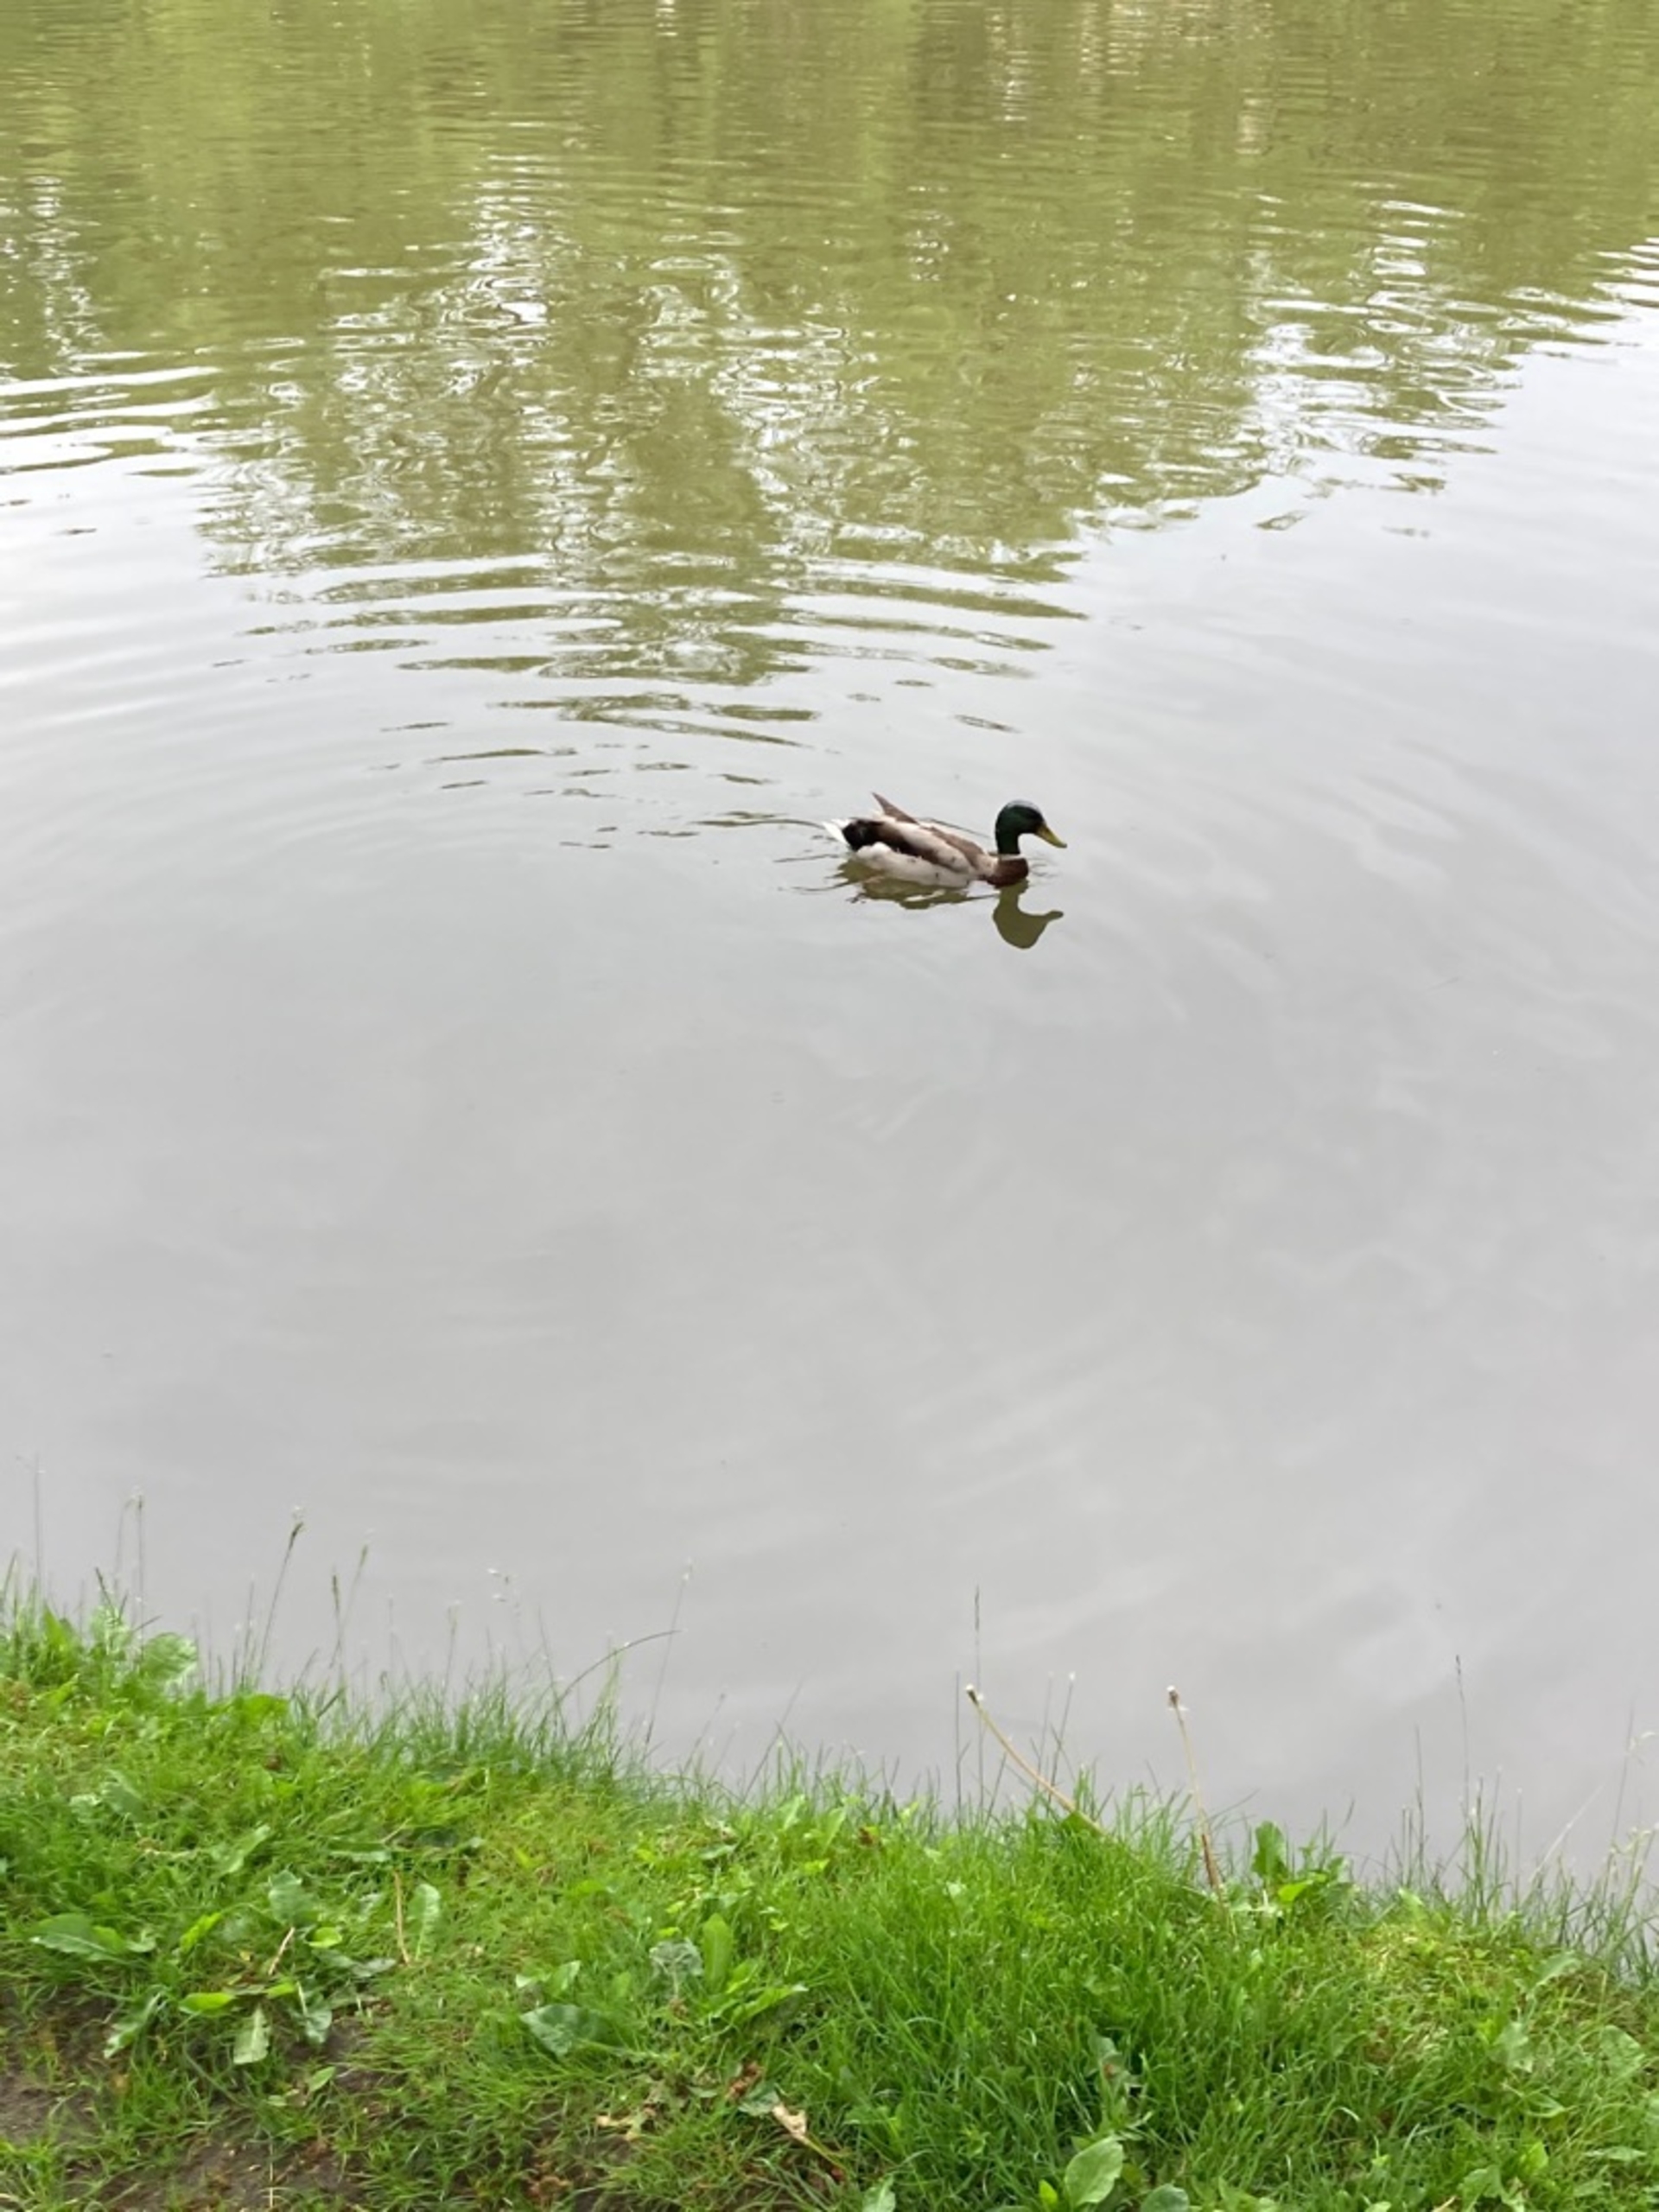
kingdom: Animalia
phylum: Chordata
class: Aves
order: Anseriformes
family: Anatidae
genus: Anas
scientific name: Anas platyrhynchos
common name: Gråand
